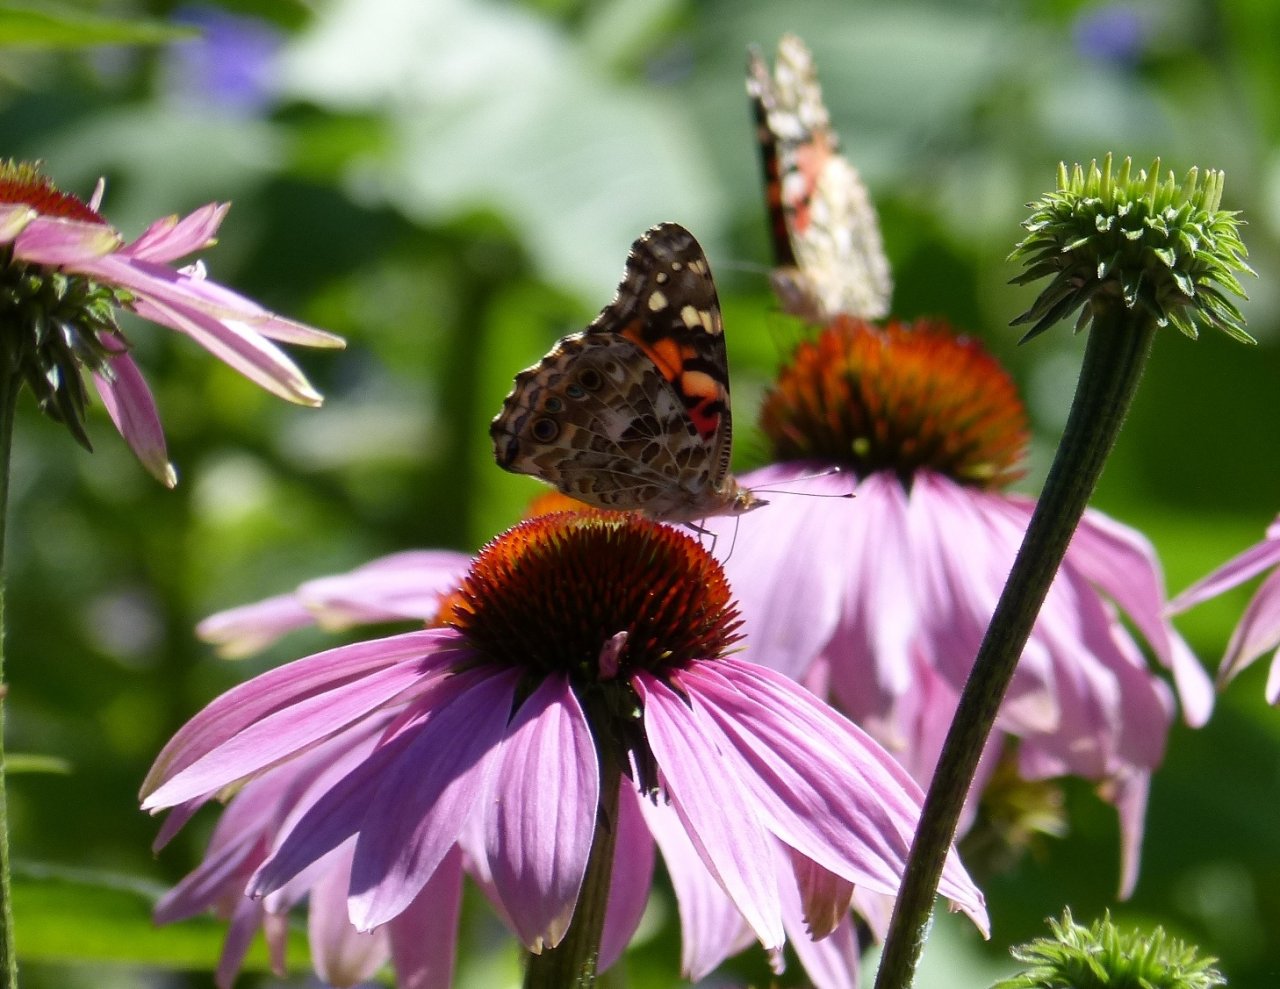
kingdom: Animalia
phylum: Arthropoda
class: Insecta
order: Lepidoptera
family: Nymphalidae
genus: Vanessa
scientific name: Vanessa virginiensis
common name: American Lady
